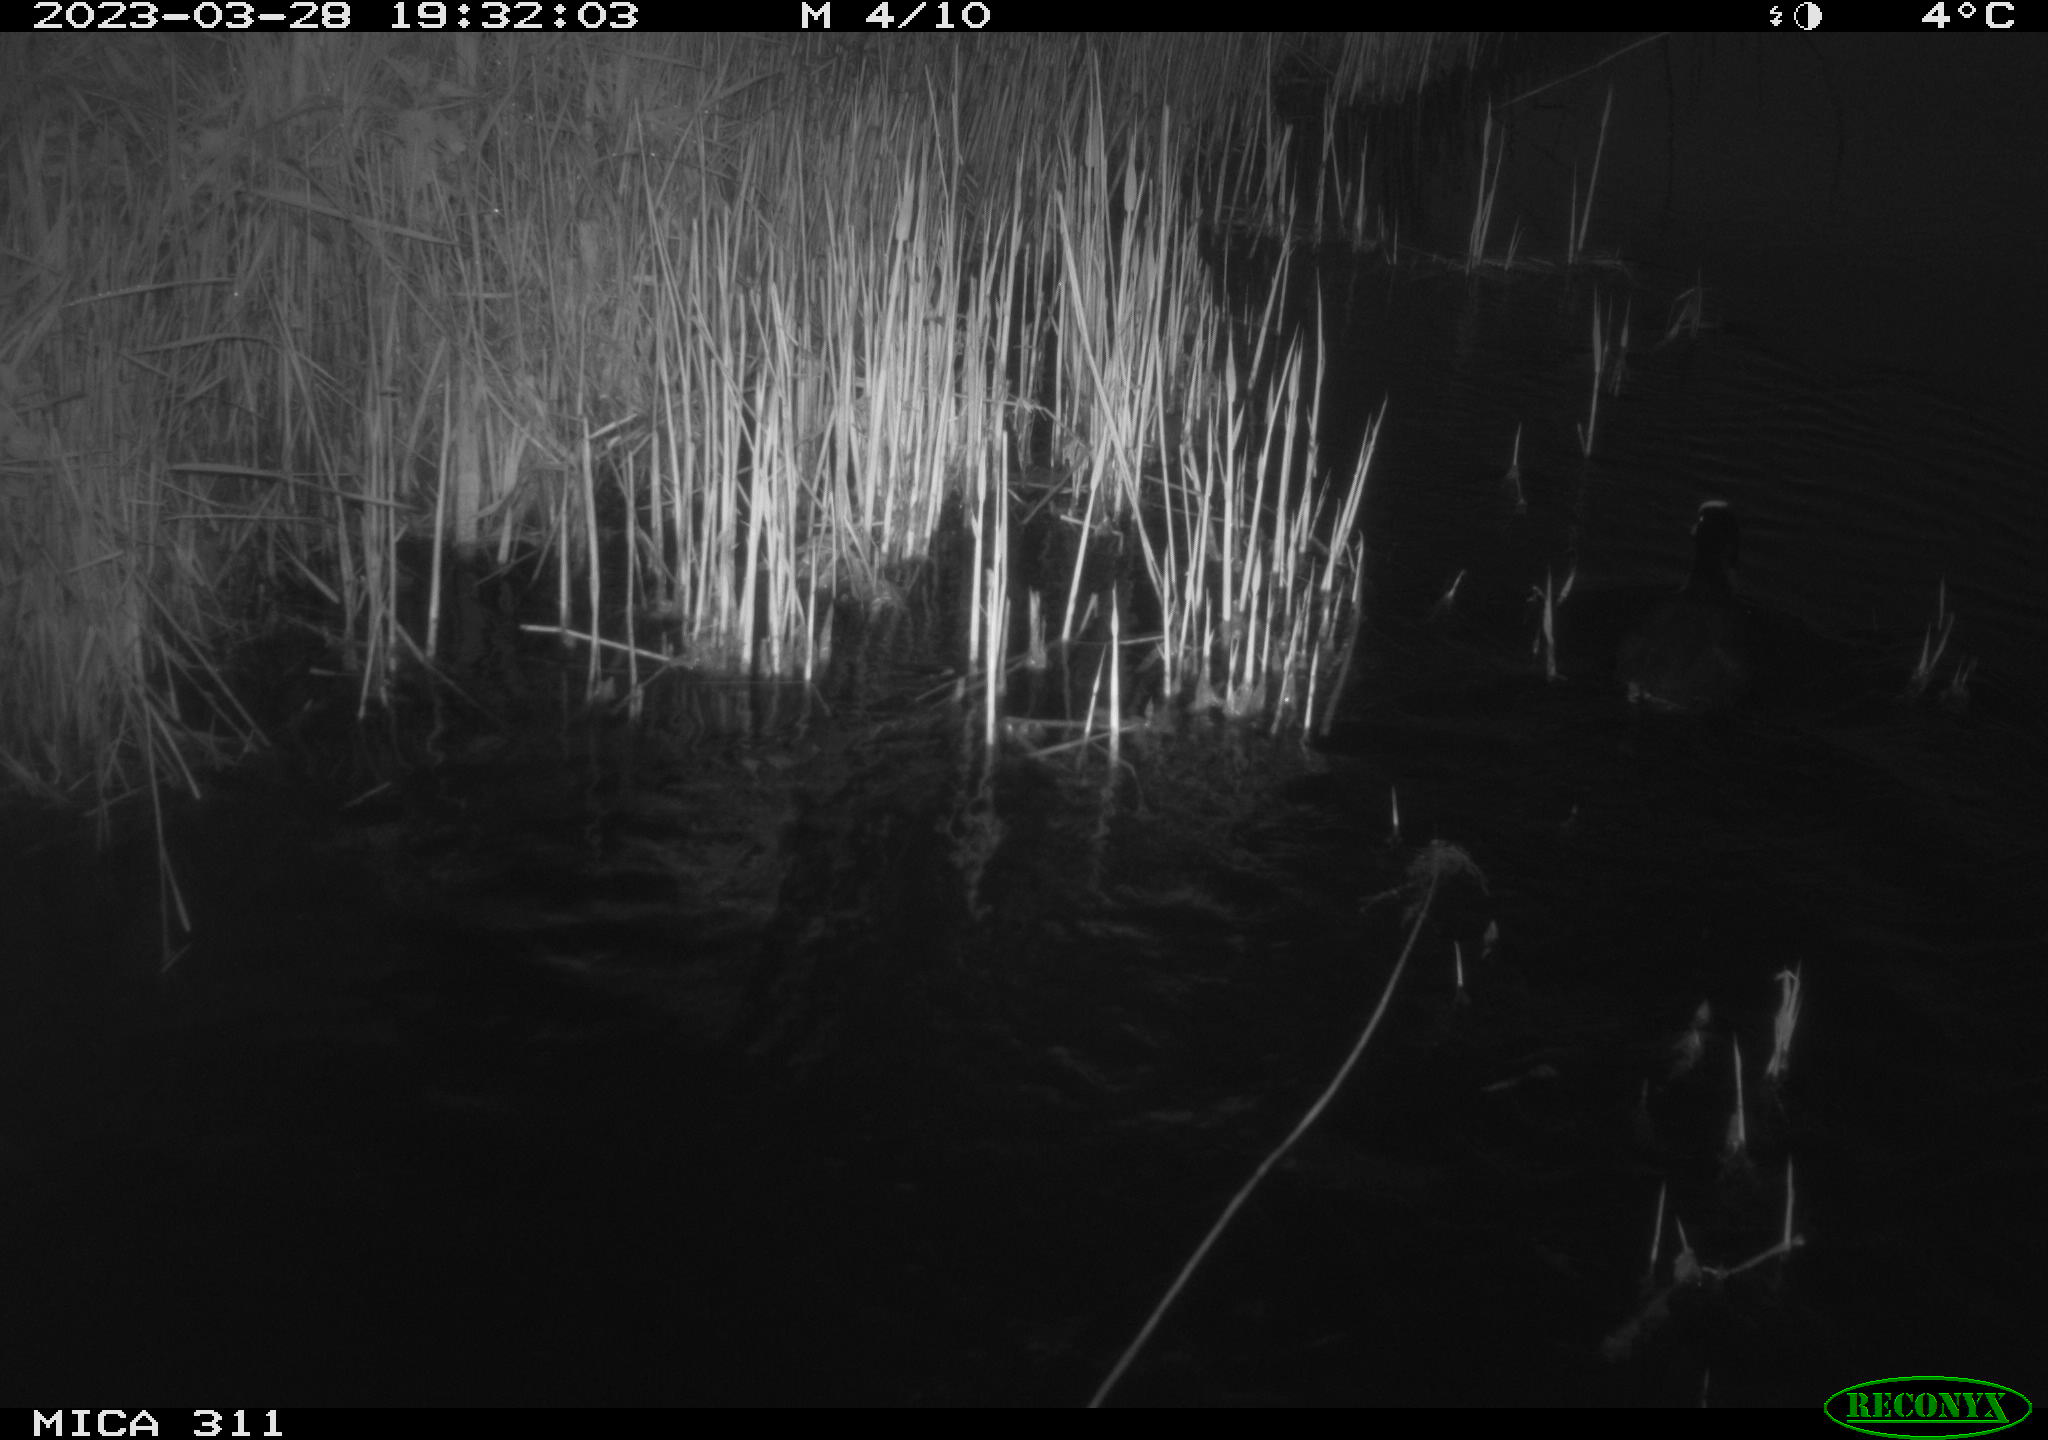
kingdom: Animalia
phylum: Chordata
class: Aves
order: Gruiformes
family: Rallidae
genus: Fulica
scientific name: Fulica atra
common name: Eurasian coot
